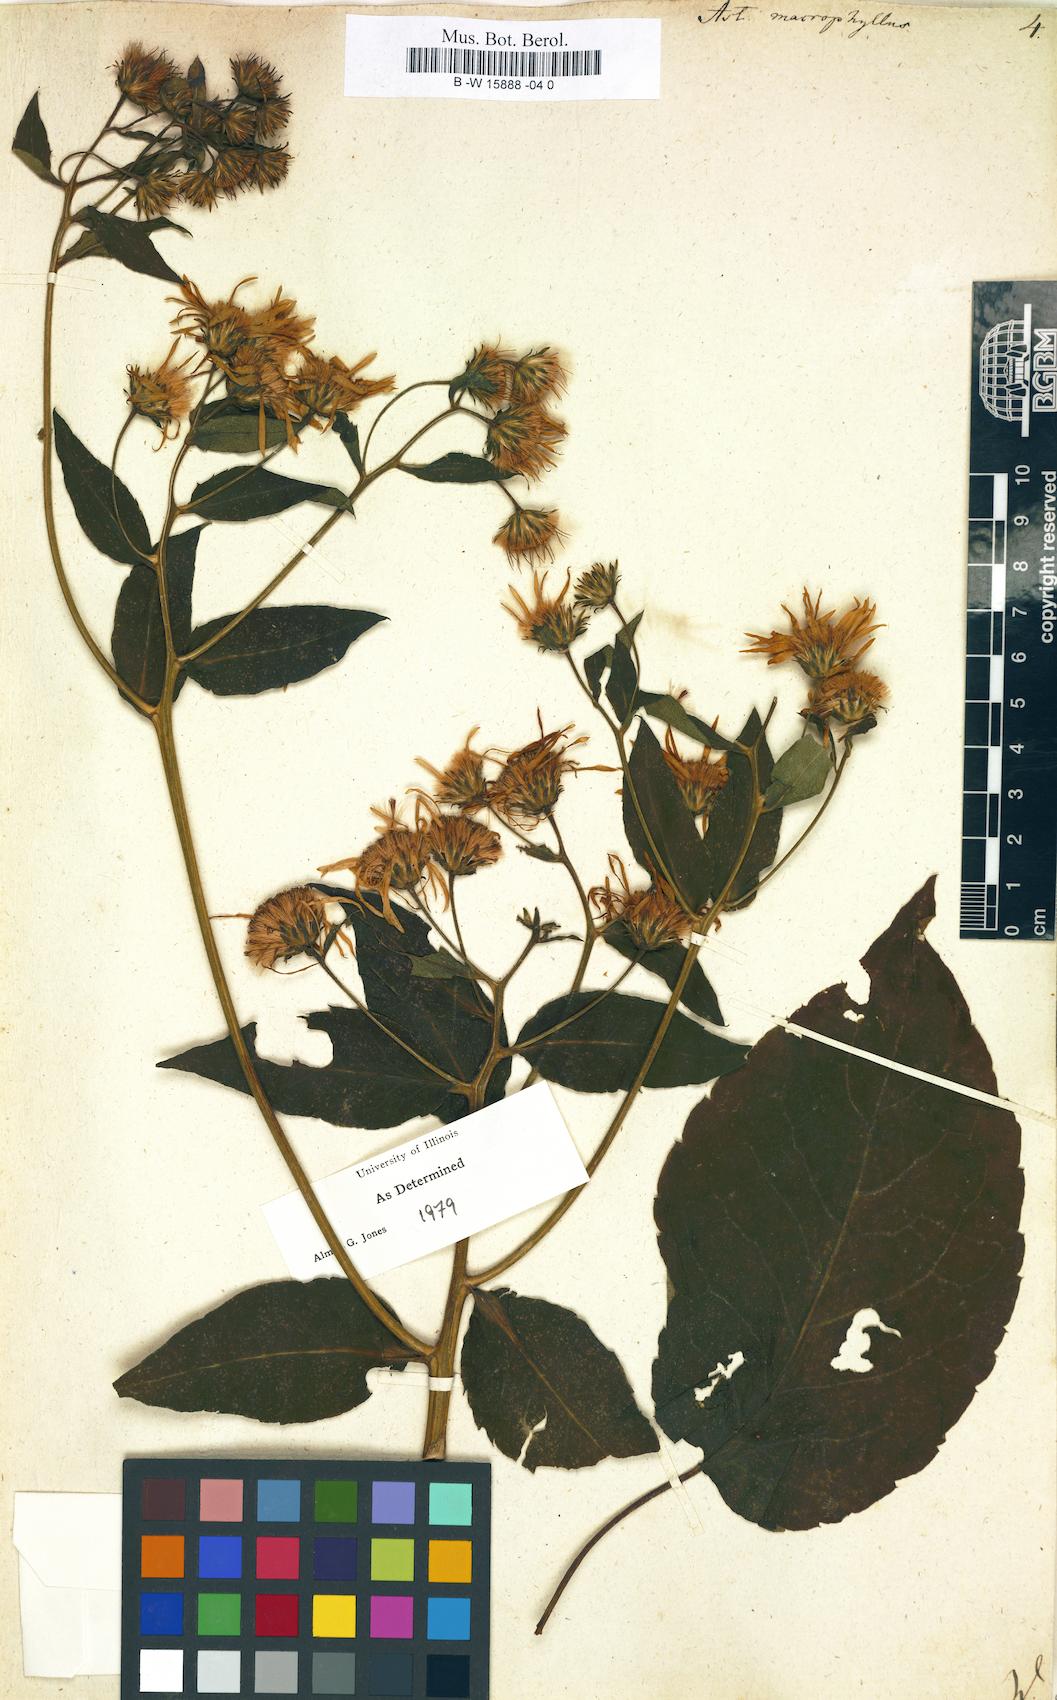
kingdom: Plantae
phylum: Tracheophyta
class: Magnoliopsida
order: Asterales
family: Asteraceae
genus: Eurybia
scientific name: Eurybia macrophylla
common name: Big-leaved aster
